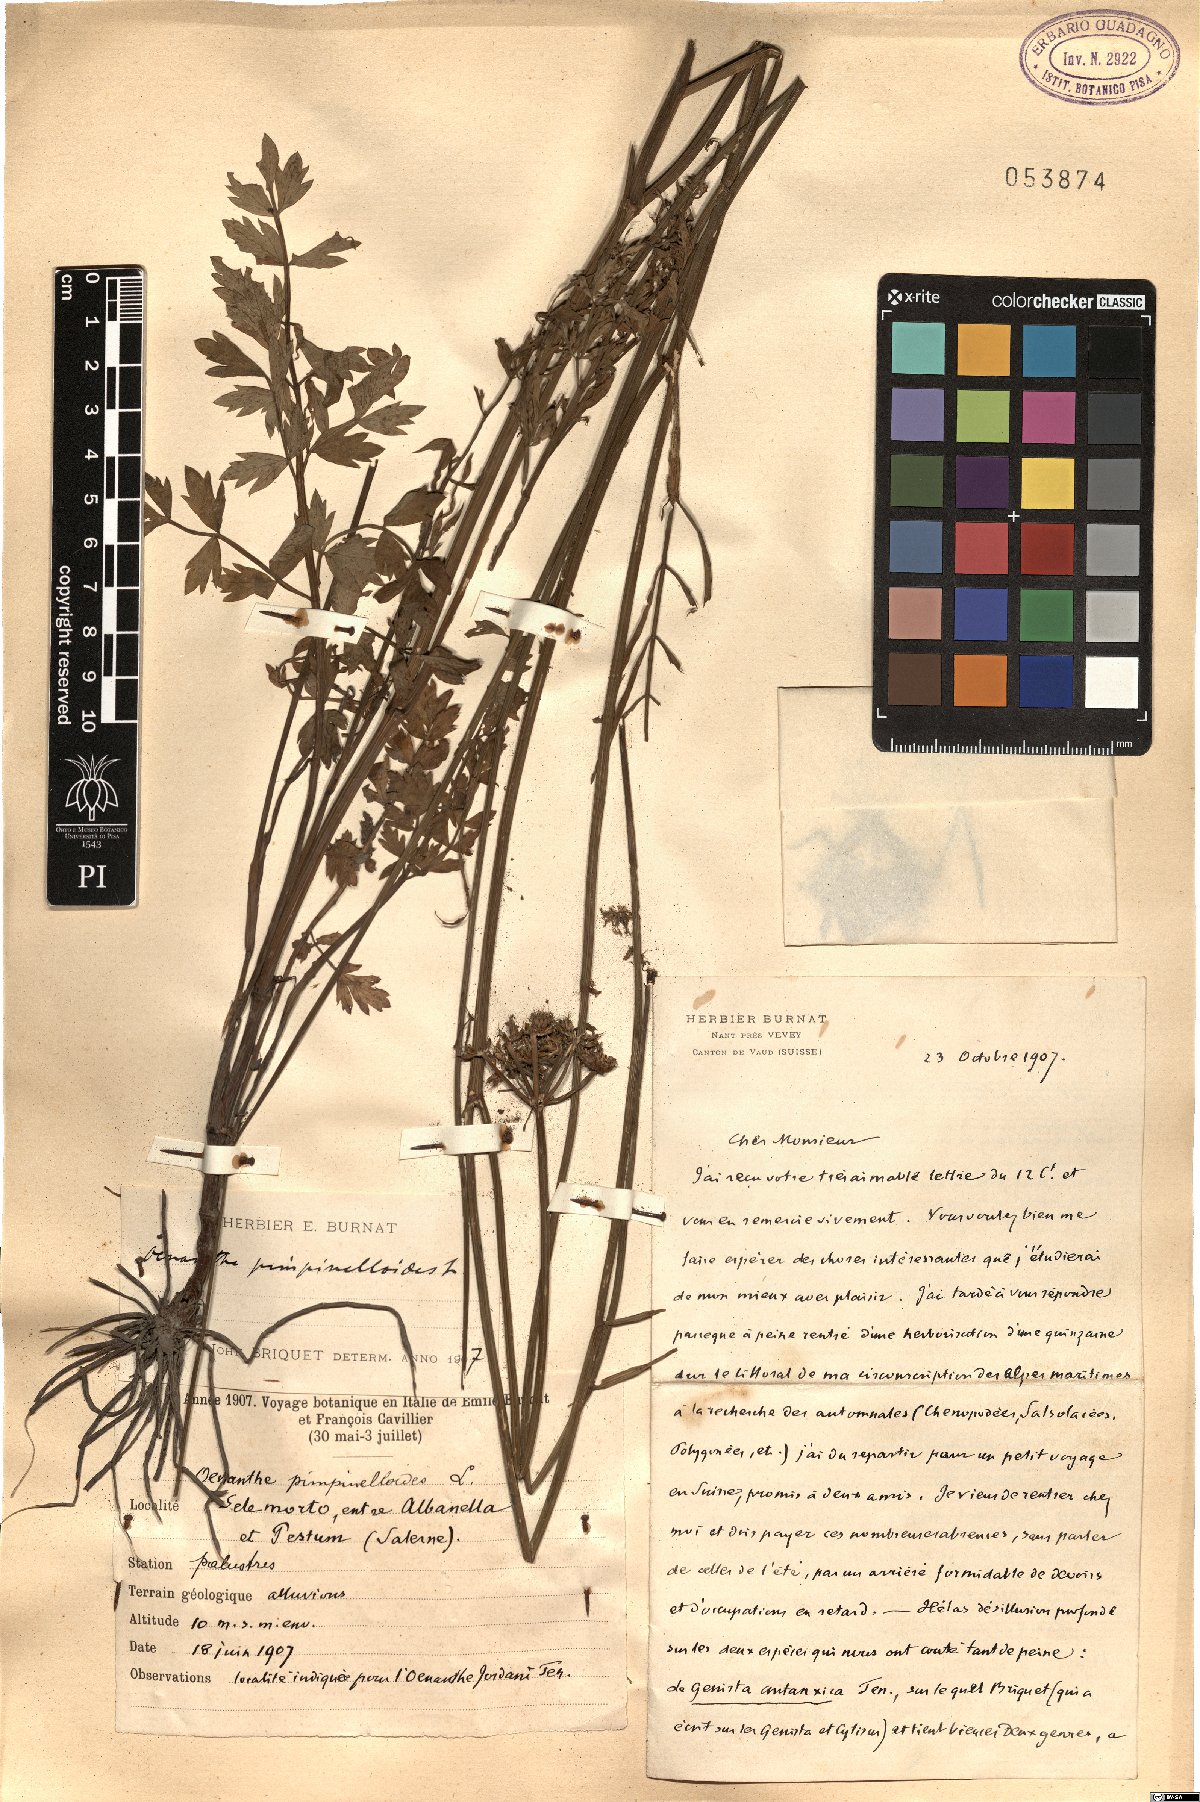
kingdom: Plantae
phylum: Tracheophyta
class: Magnoliopsida
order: Apiales
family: Apiaceae
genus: Oenanthe
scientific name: Oenanthe pimpinelloides
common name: Corky-fruited water-dropwort
